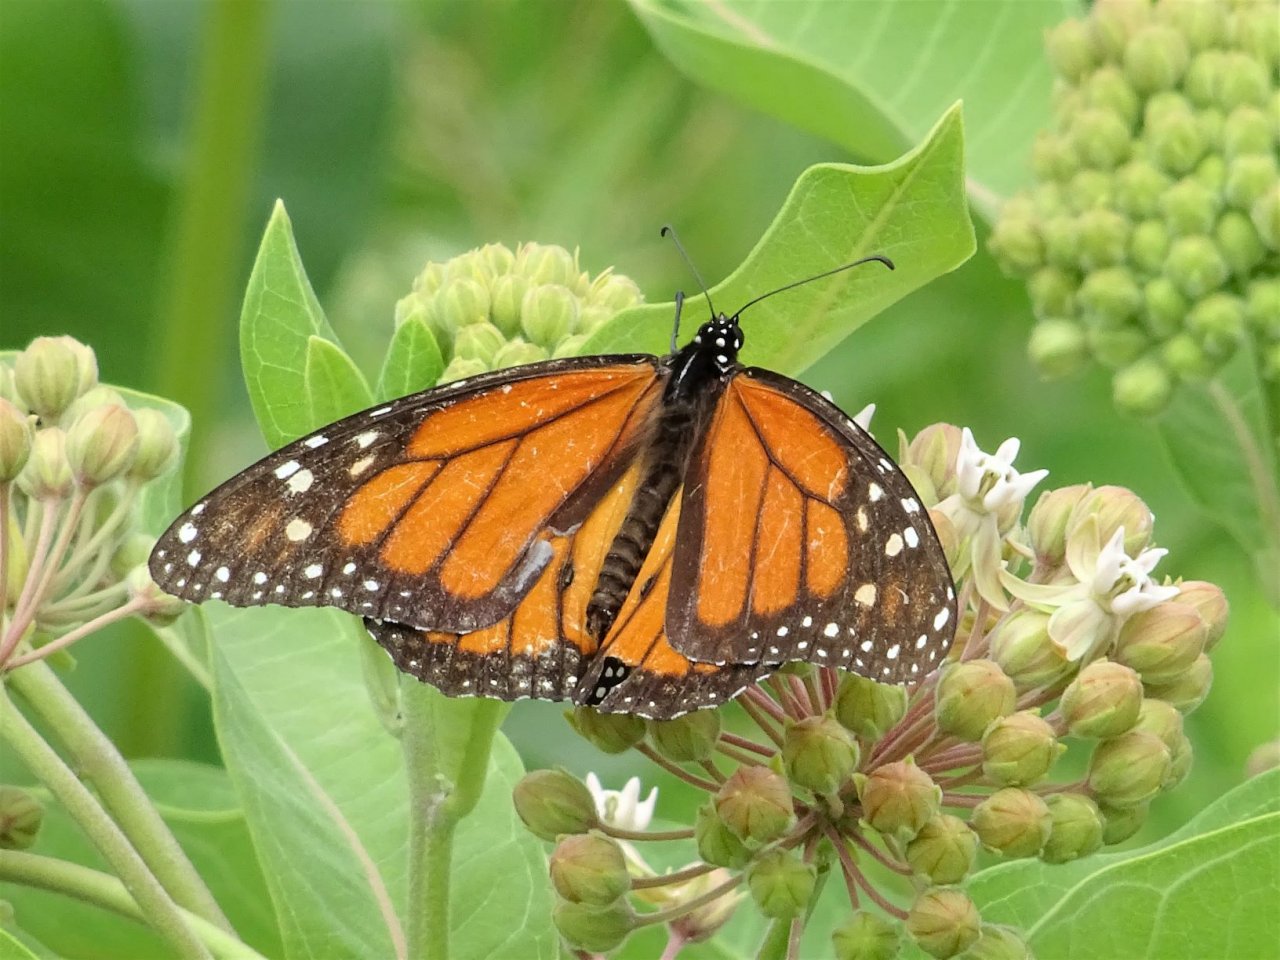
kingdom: Animalia
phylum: Arthropoda
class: Insecta
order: Lepidoptera
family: Nymphalidae
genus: Danaus
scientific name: Danaus plexippus
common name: Monarch
